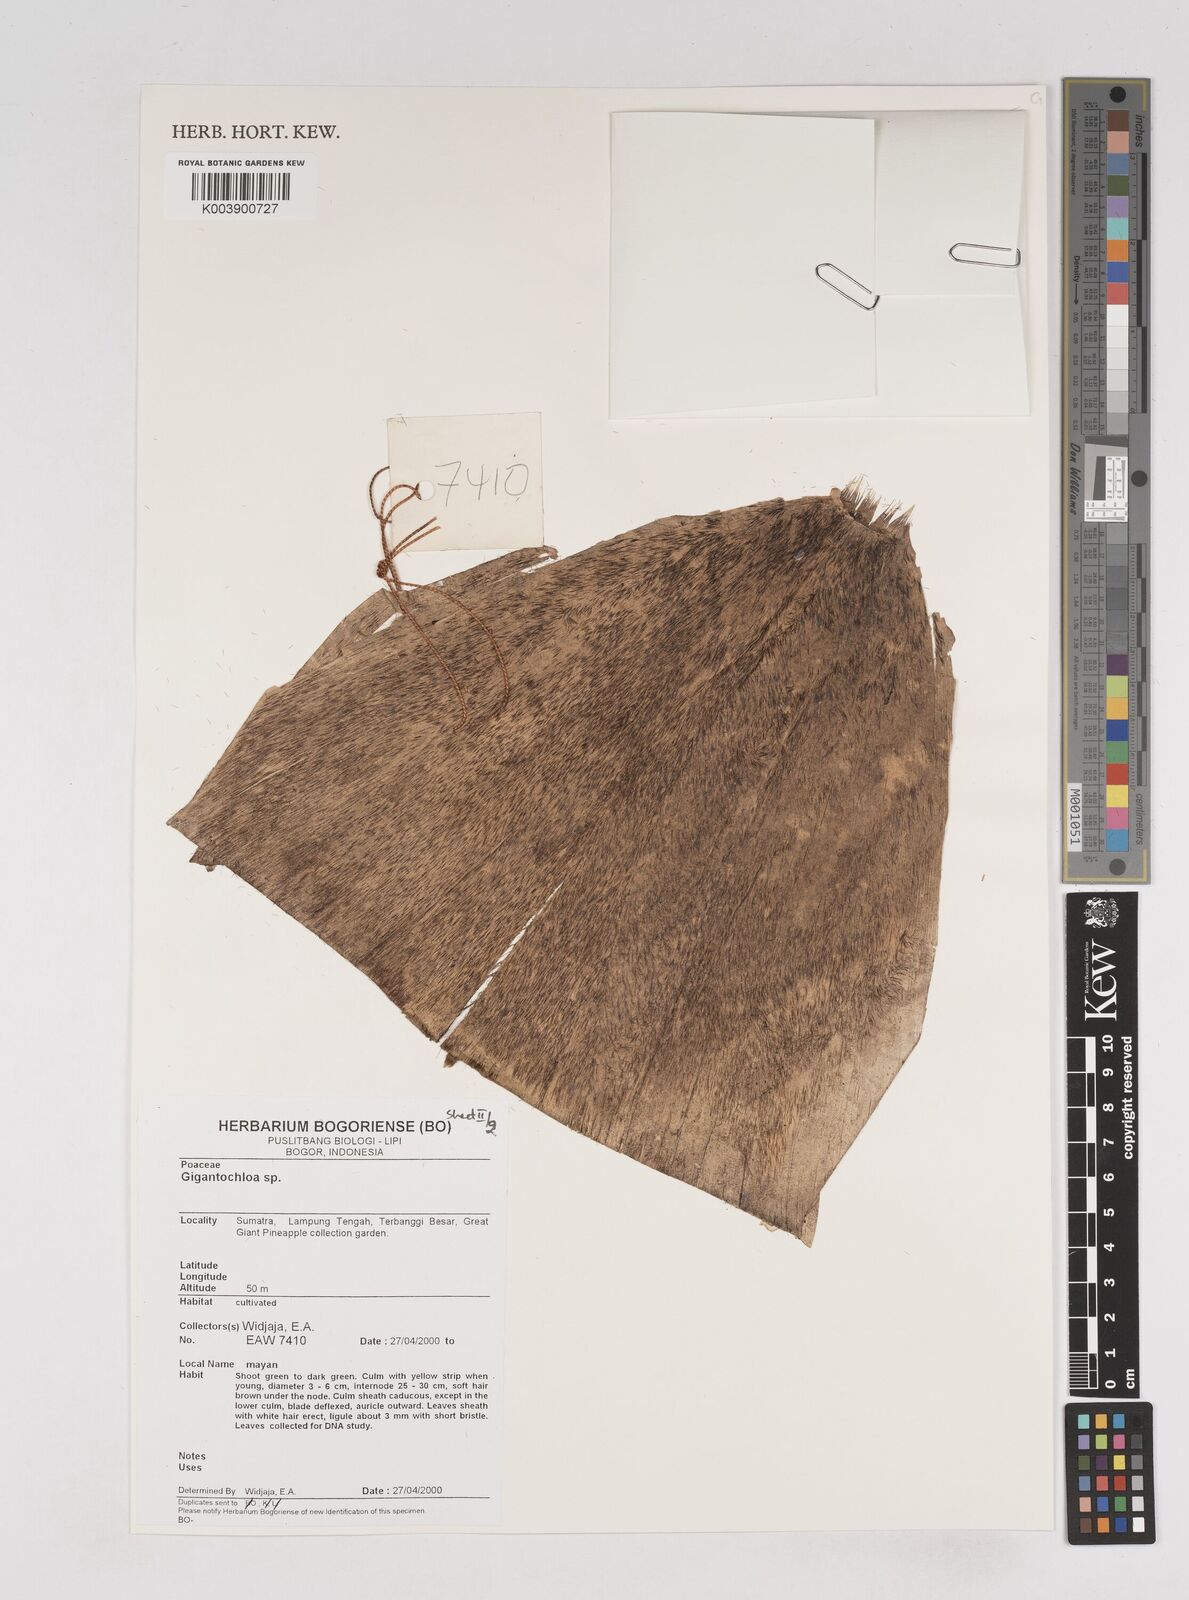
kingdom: Plantae
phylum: Tracheophyta
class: Liliopsida
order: Poales
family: Poaceae
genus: Gigantochloa
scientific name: Gigantochloa
